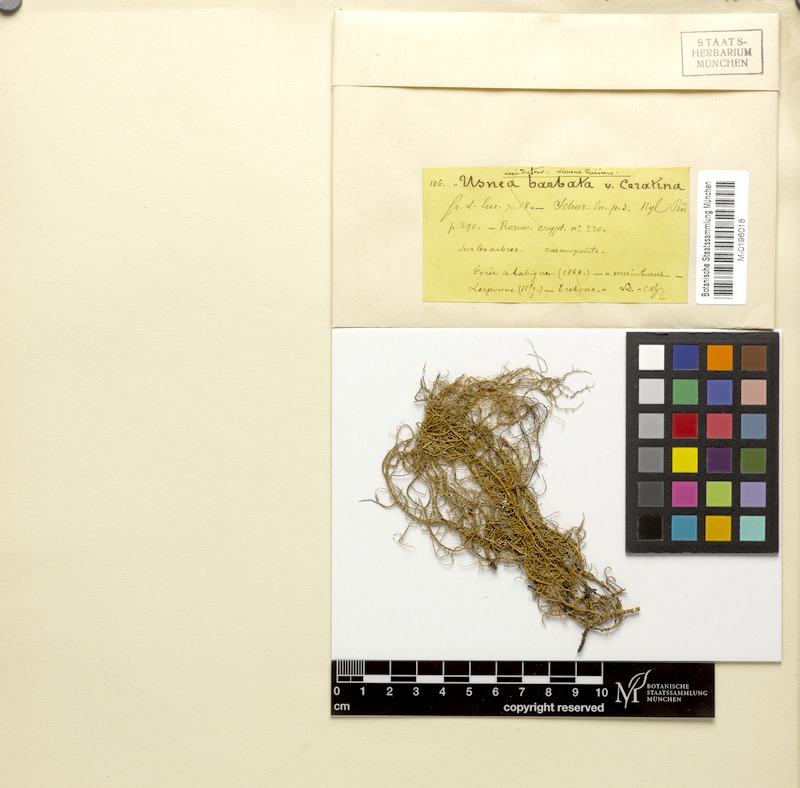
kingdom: Fungi
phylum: Ascomycota
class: Lecanoromycetes
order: Lecanorales
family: Parmeliaceae
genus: Usnea
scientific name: Usnea ceratina
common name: Warty beard lichen
